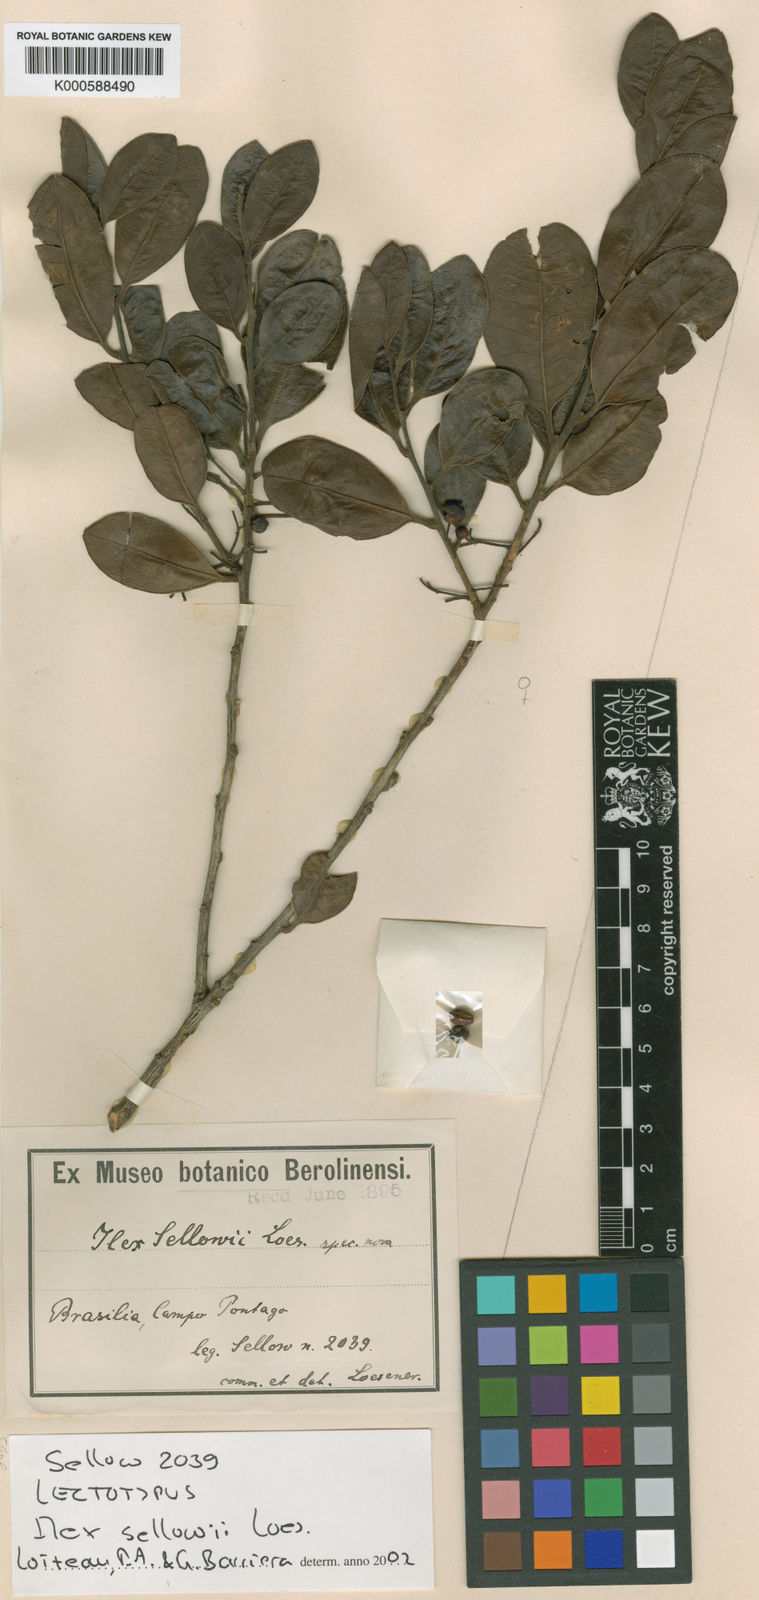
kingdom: Plantae
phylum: Tracheophyta
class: Magnoliopsida
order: Aquifoliales
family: Aquifoliaceae
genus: Ilex
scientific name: Ilex
